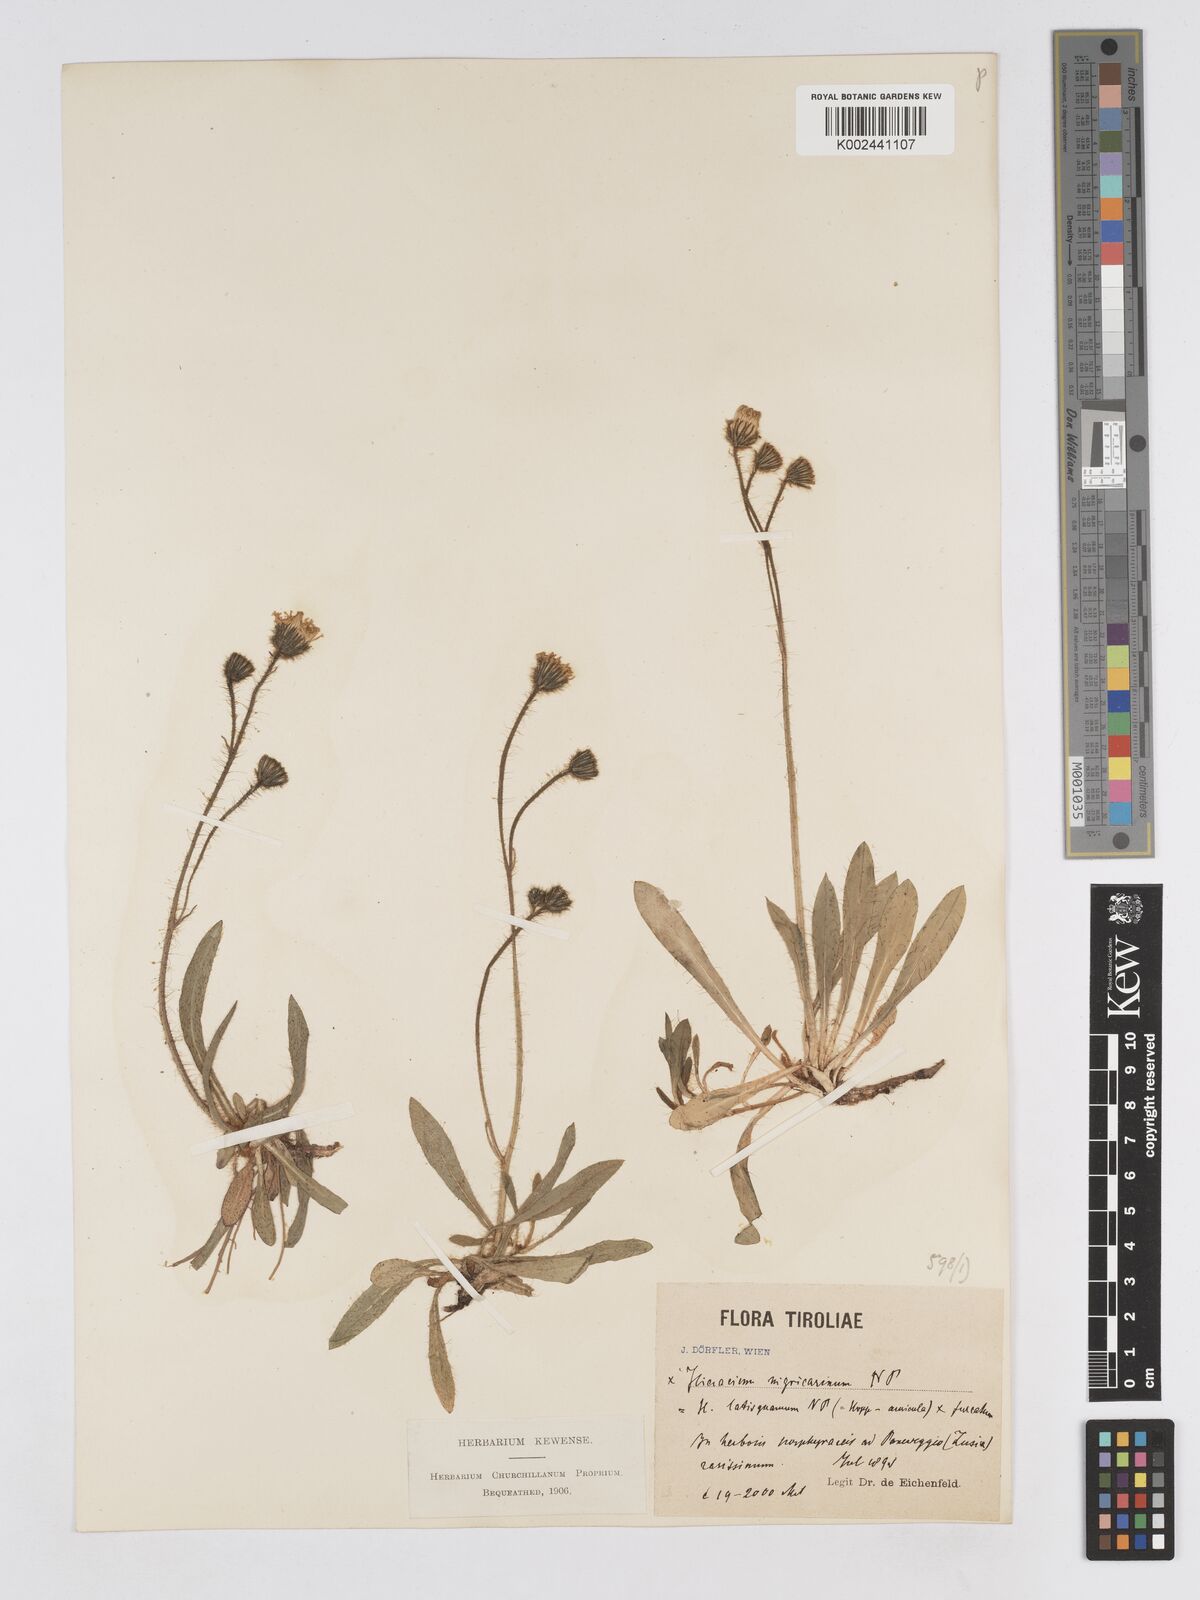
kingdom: Plantae
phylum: Tracheophyta
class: Magnoliopsida
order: Asterales
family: Asteraceae
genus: Pilosella
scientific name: Pilosella lathraea
